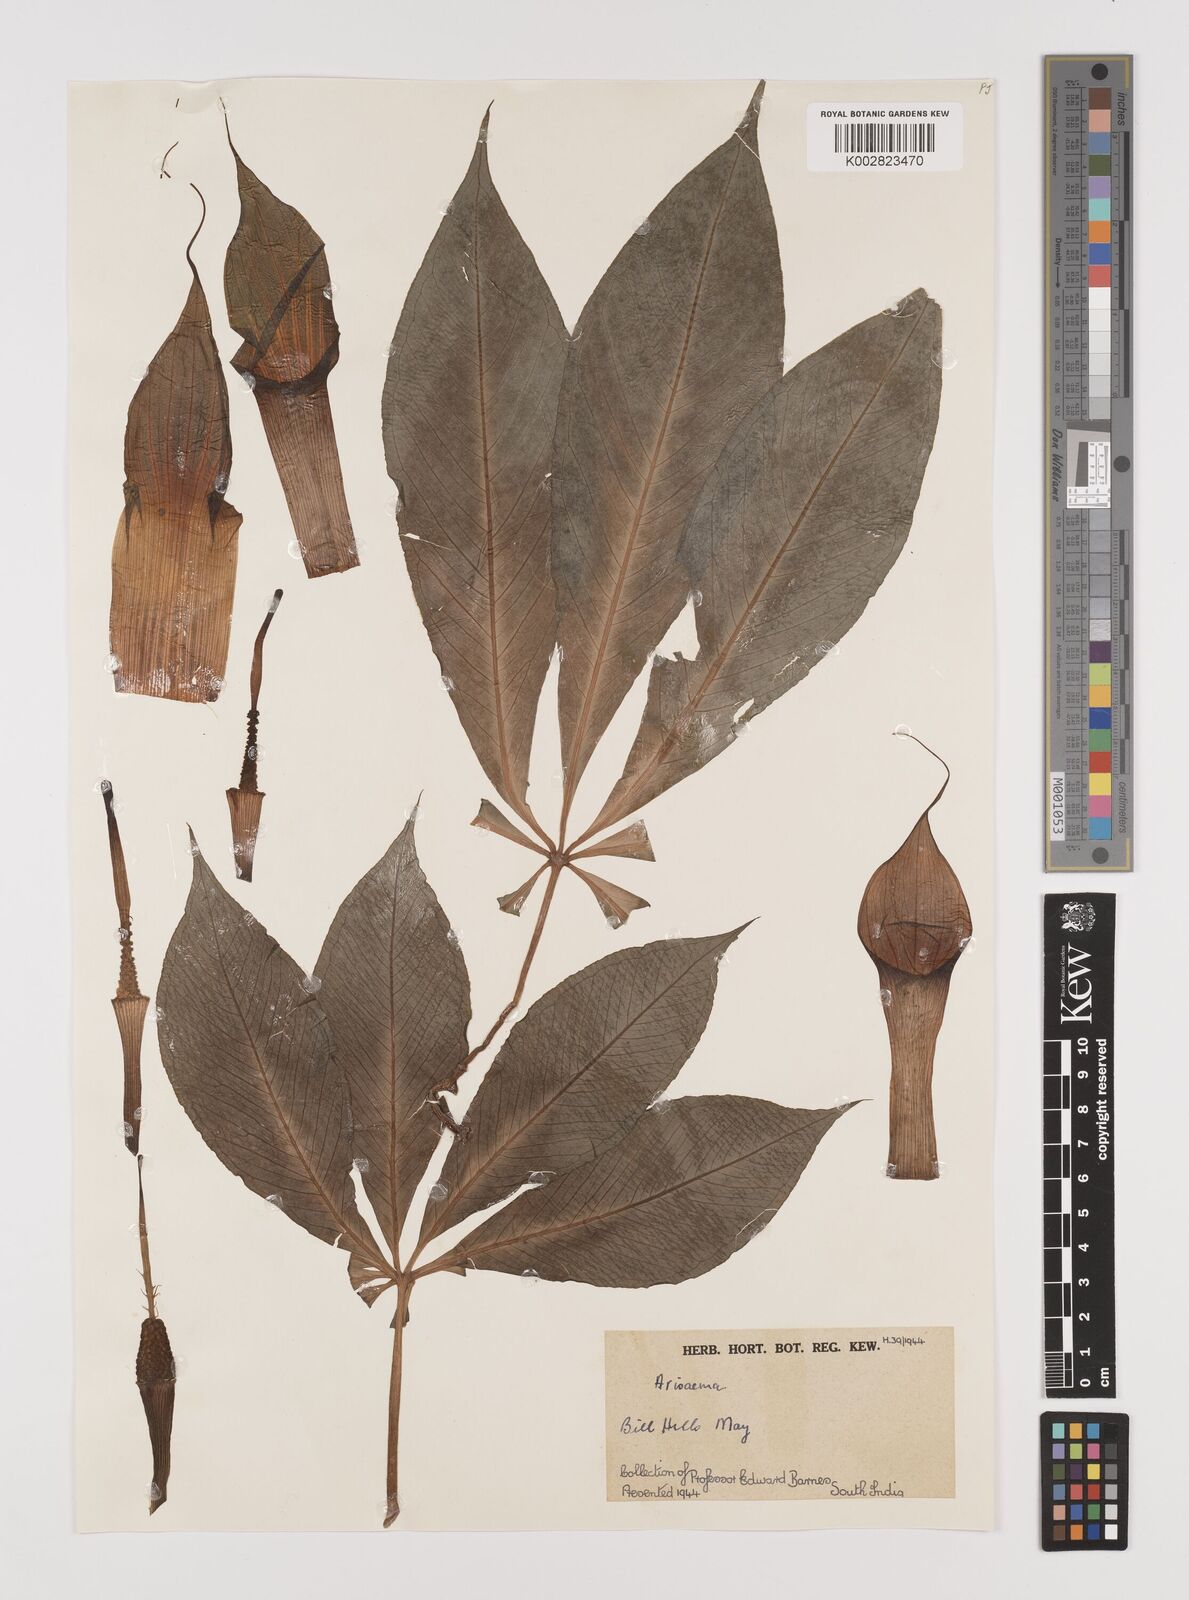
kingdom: Plantae
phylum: Tracheophyta
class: Liliopsida
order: Alismatales
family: Araceae
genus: Arisaema
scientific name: Arisaema
